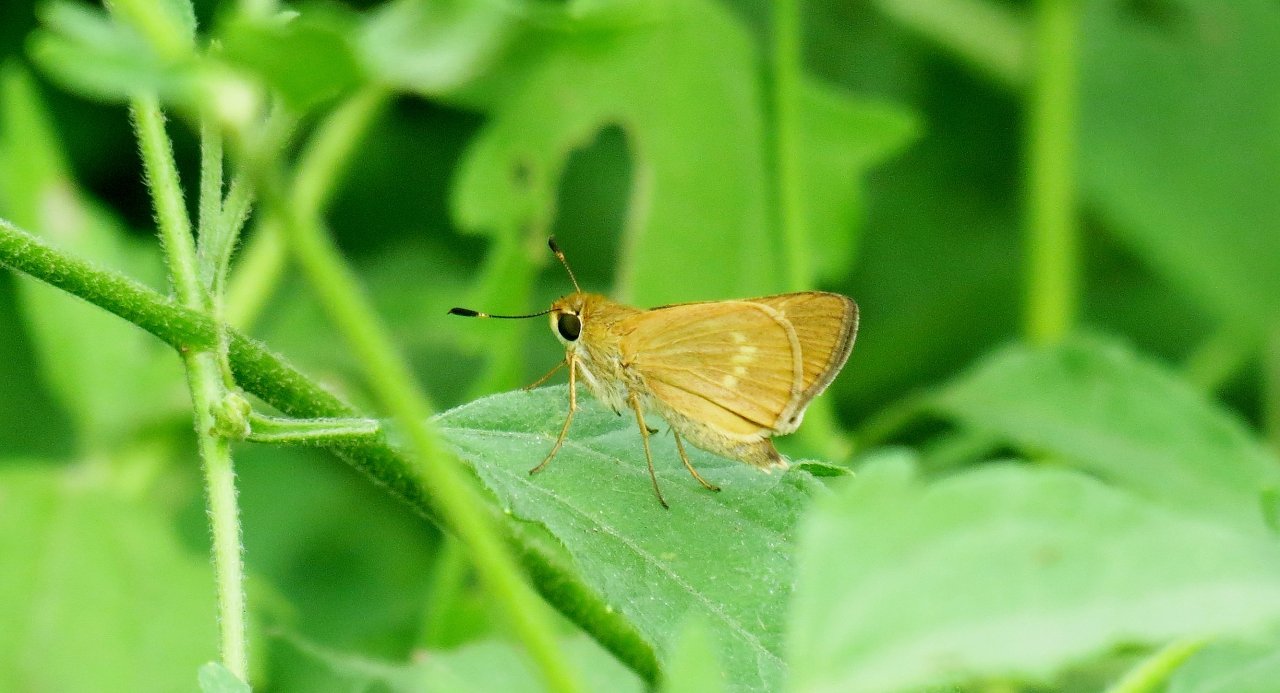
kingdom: Animalia
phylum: Arthropoda
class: Insecta
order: Lepidoptera
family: Hesperiidae
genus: Mellana
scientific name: Mellana eulogius
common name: Common Mellana
